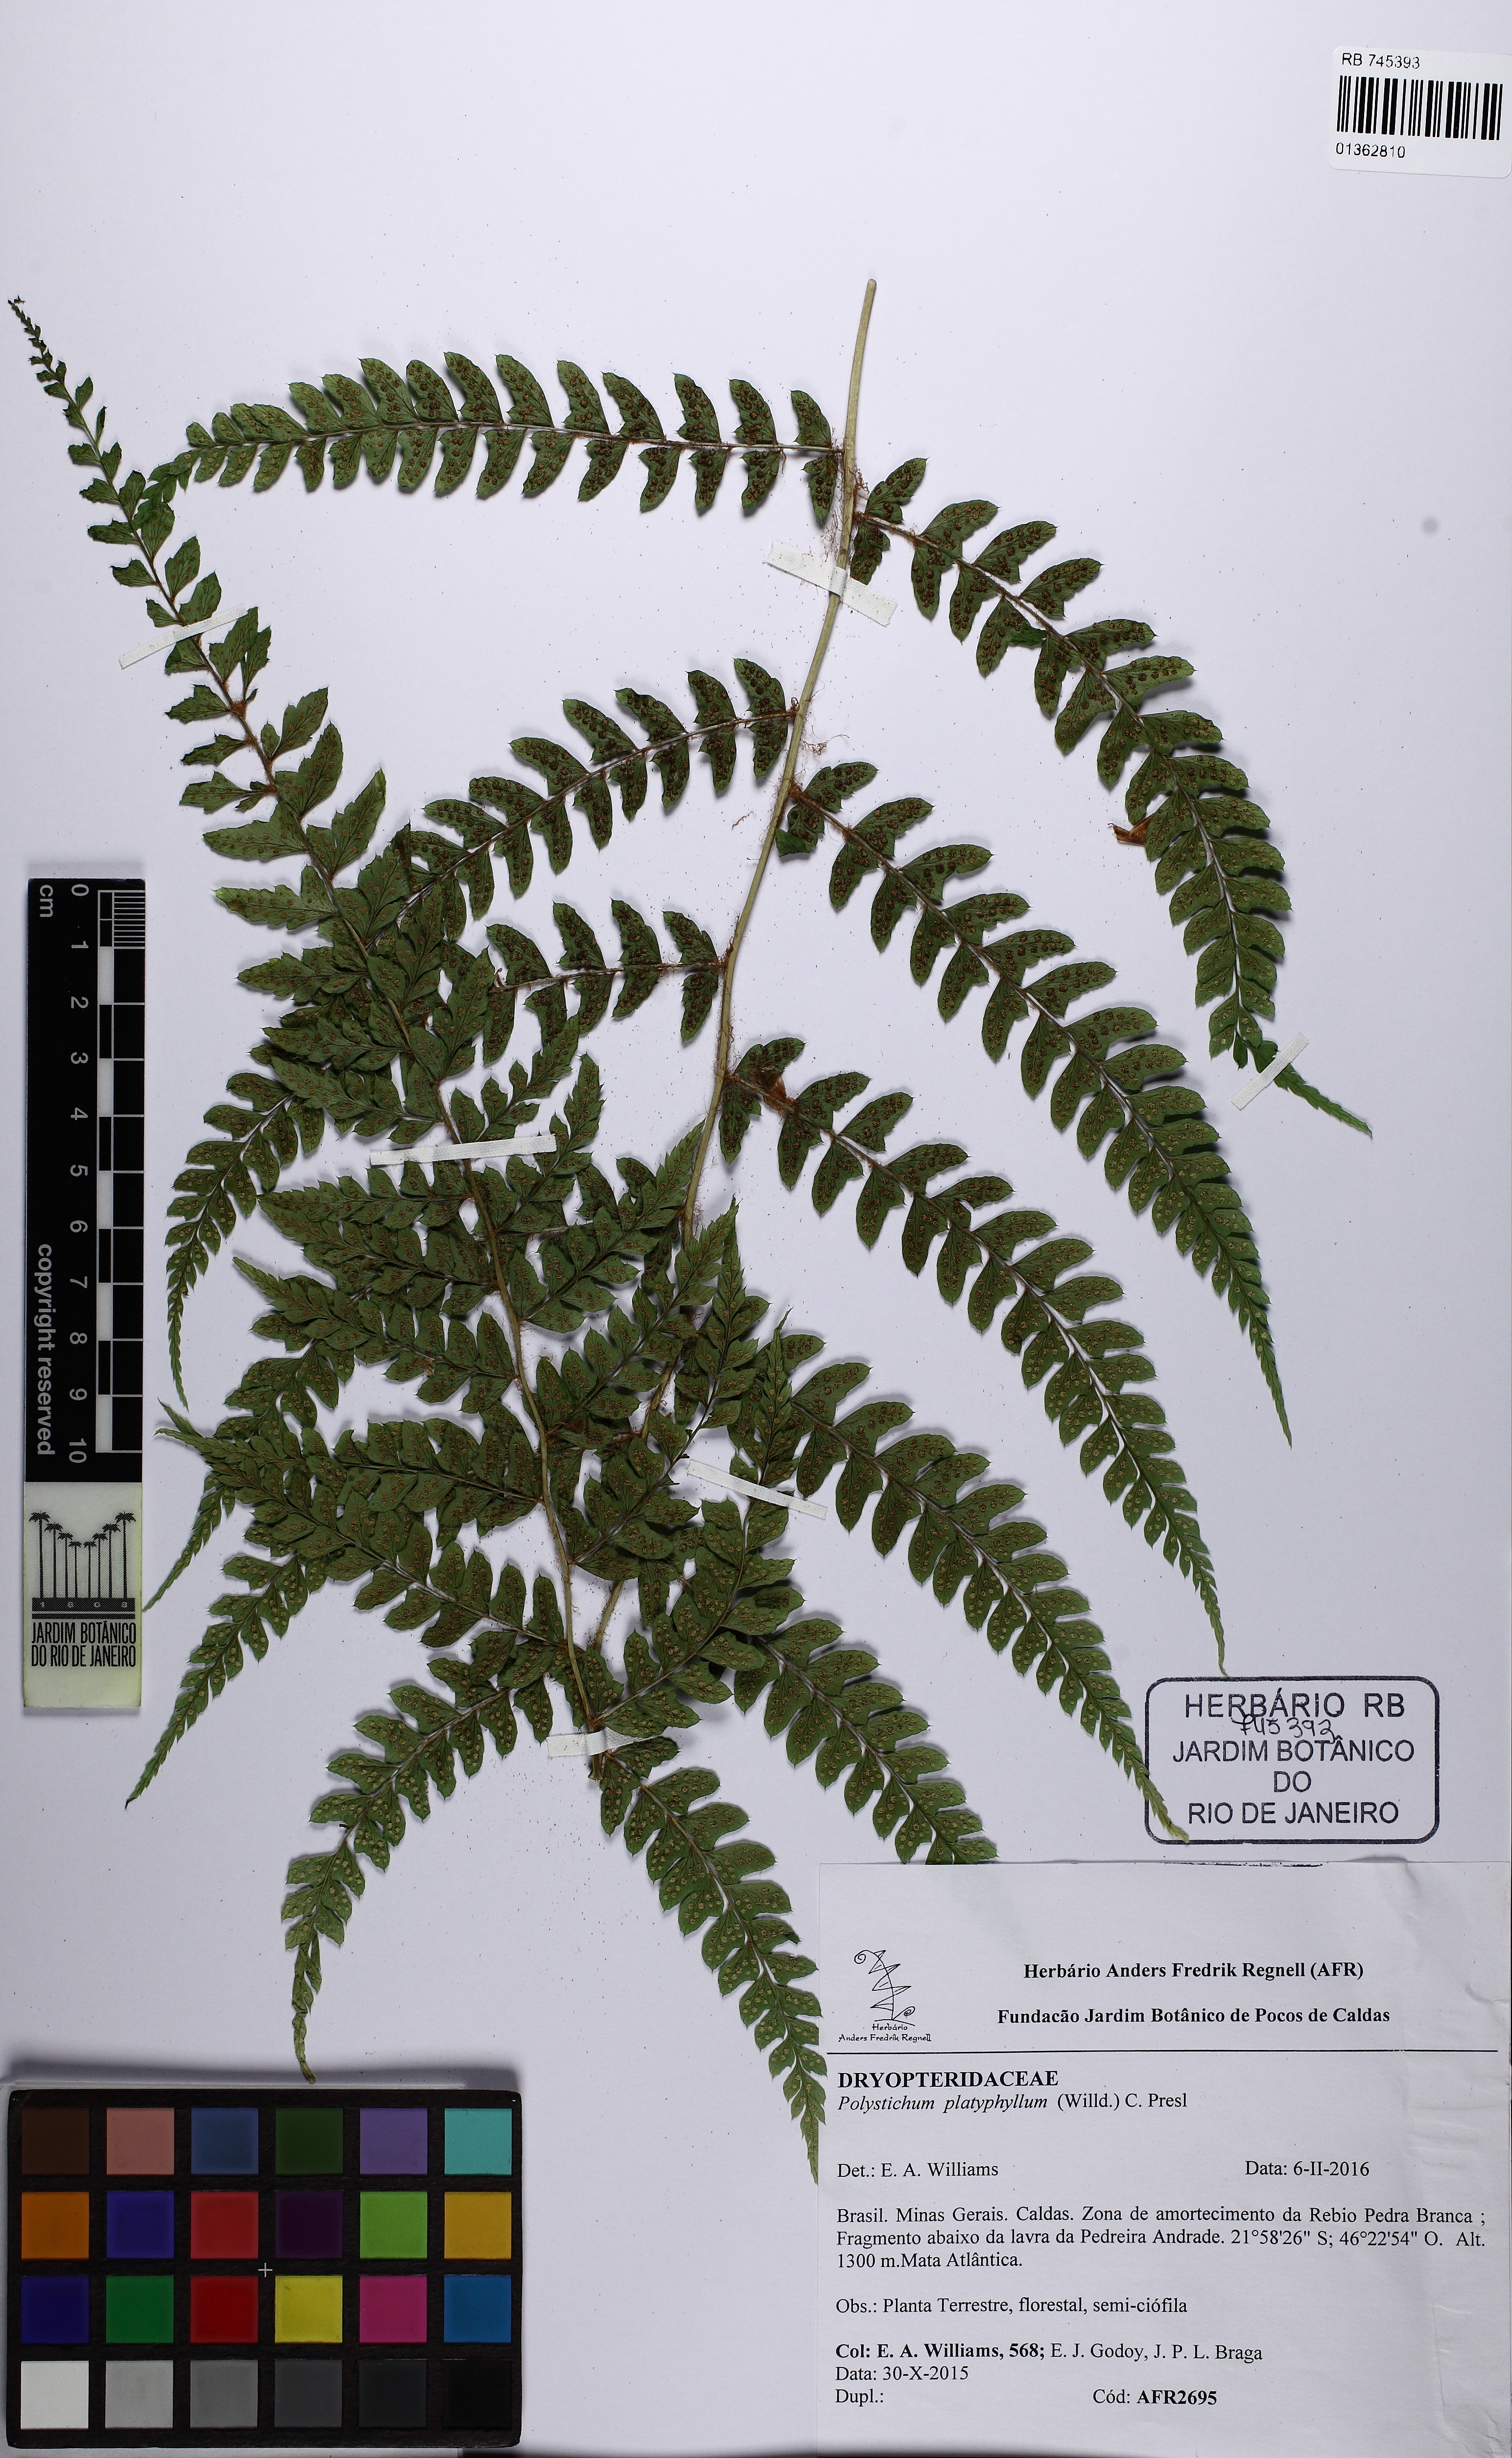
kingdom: Plantae
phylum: Tracheophyta
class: Polypodiopsida
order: Polypodiales
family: Dryopteridaceae
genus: Polystichum
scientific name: Polystichum platyphyllum
